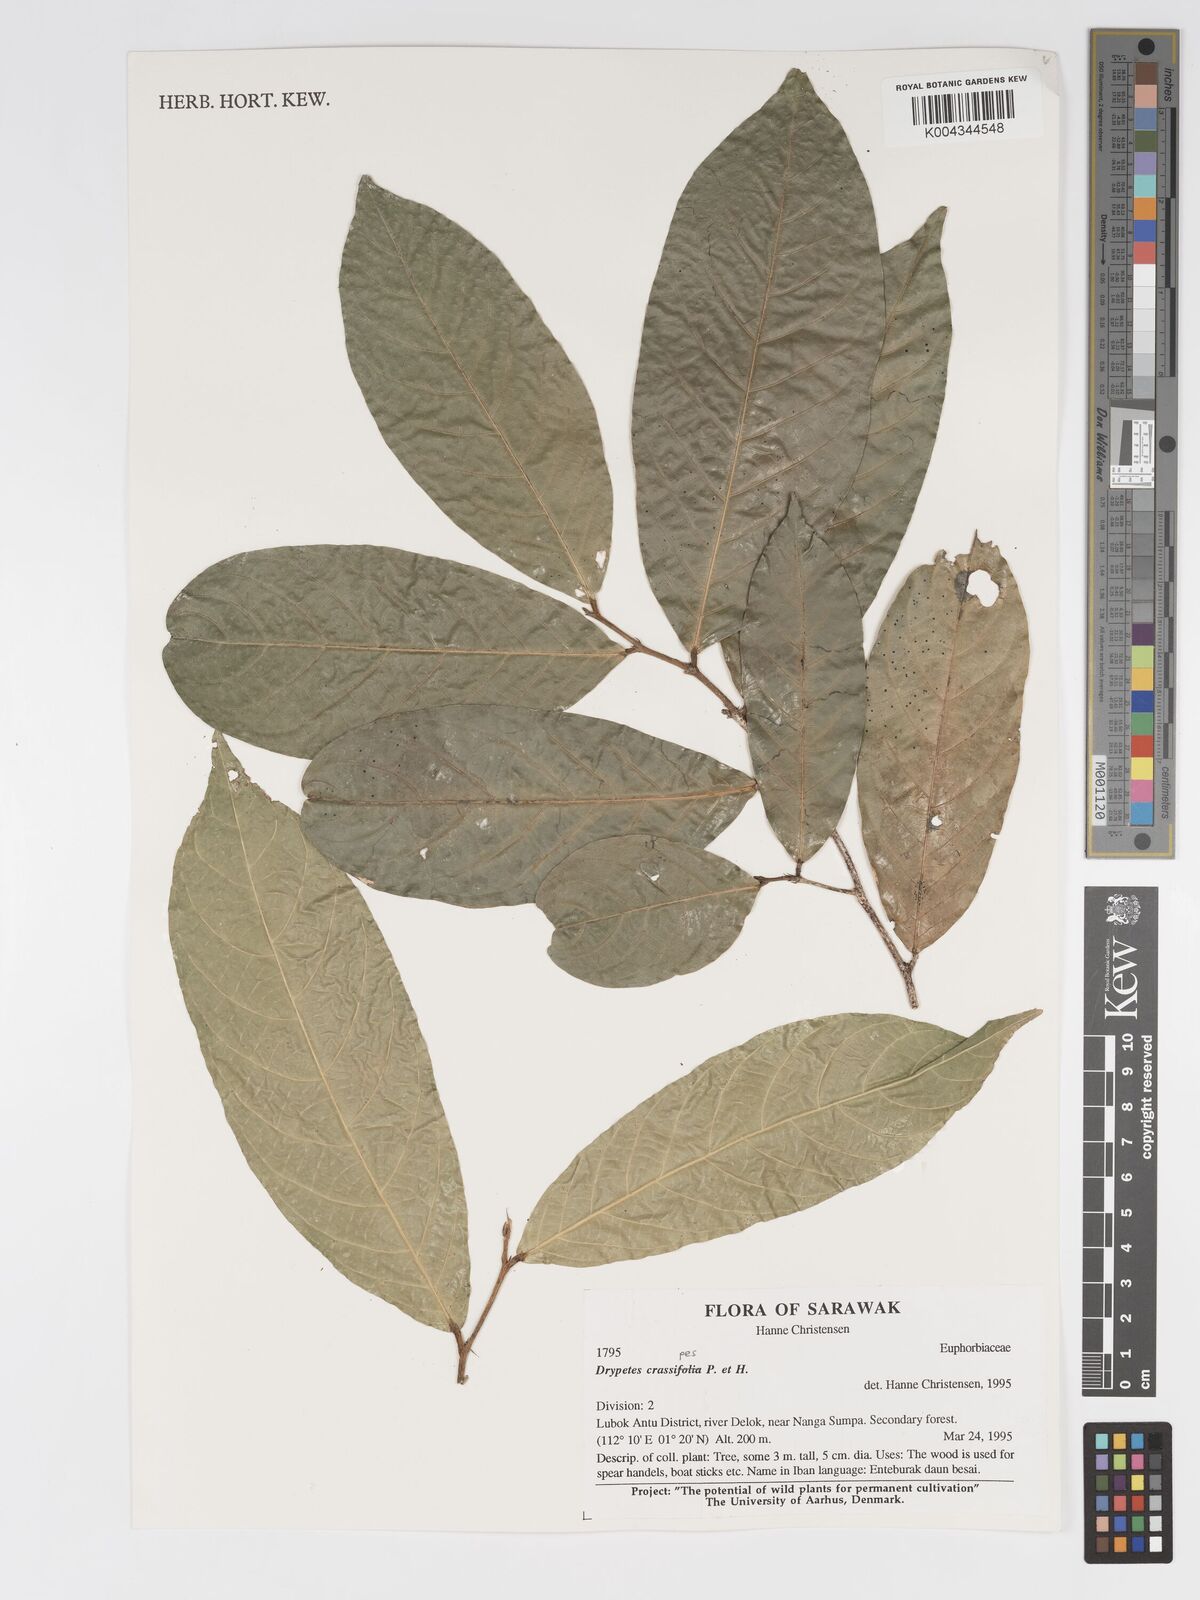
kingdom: Plantae
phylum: Tracheophyta
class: Magnoliopsida
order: Malpighiales
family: Putranjivaceae
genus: Drypetes
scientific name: Drypetes crassipes
